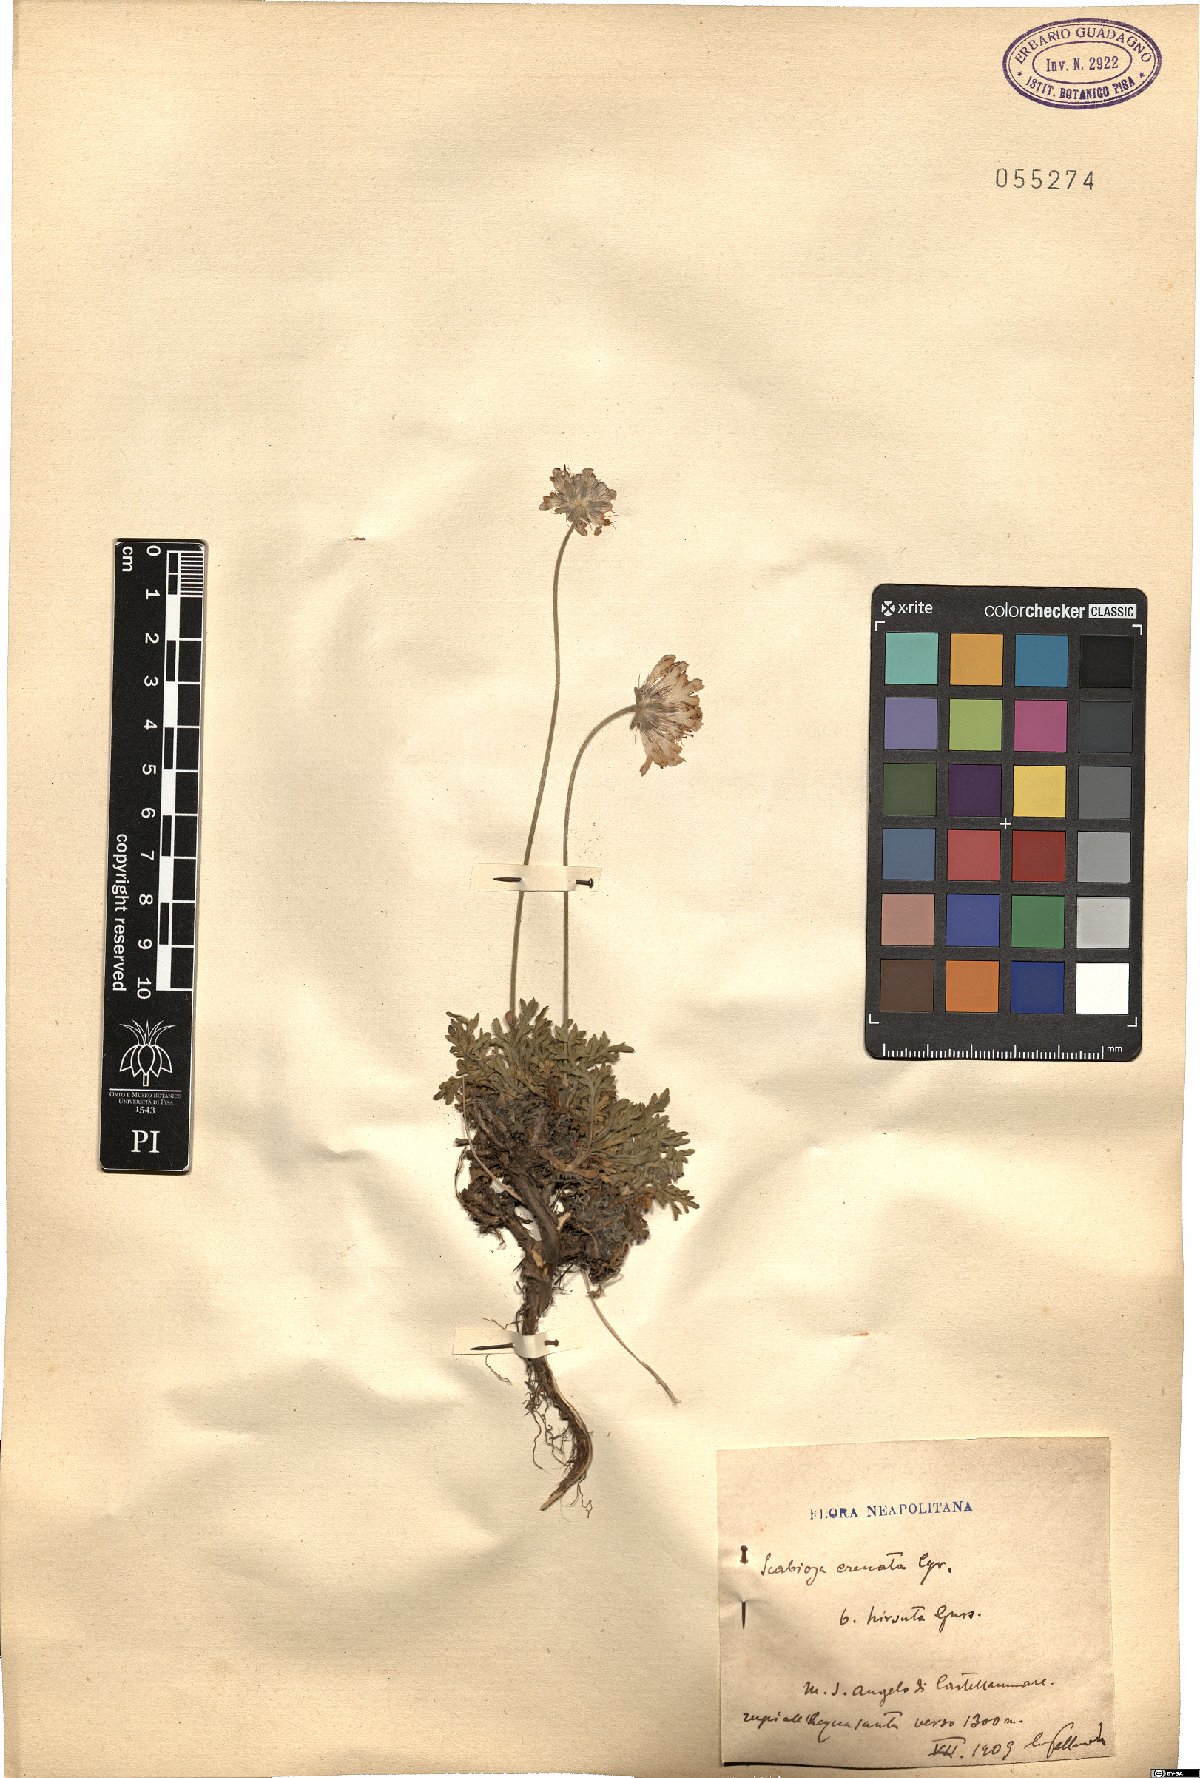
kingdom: Plantae
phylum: Tracheophyta
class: Magnoliopsida
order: Dipsacales
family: Caprifoliaceae
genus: Lomelosia
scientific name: Lomelosia crenata
